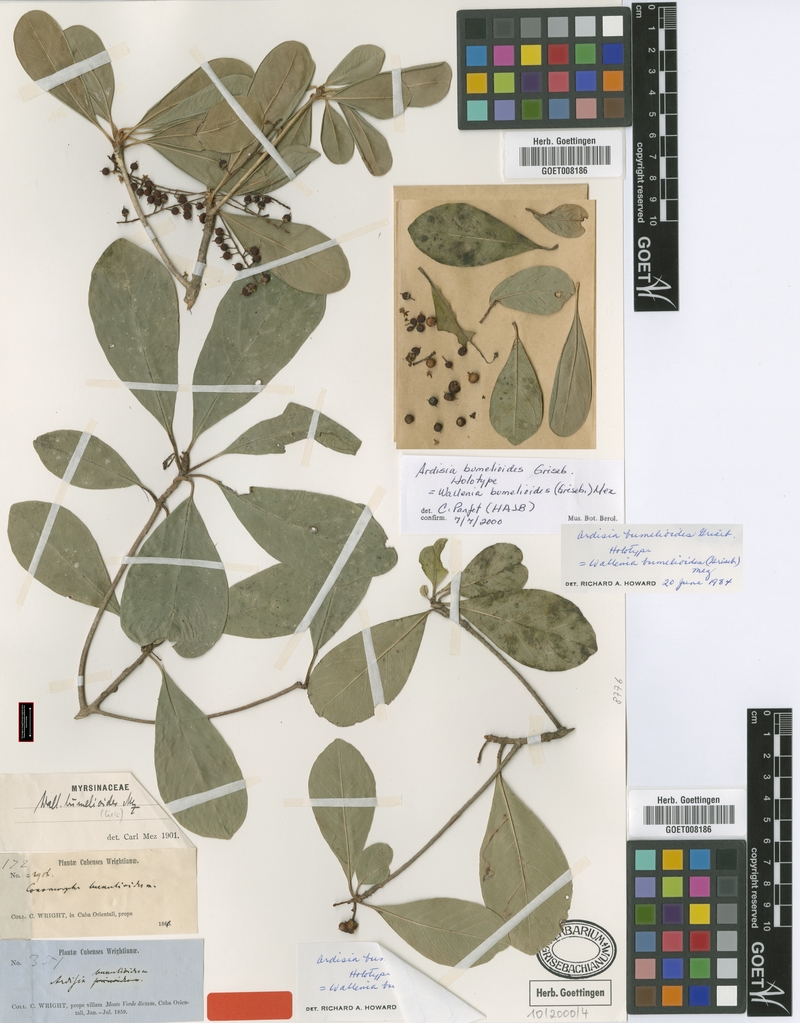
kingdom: Plantae
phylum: Tracheophyta
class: Magnoliopsida
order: Ericales
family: Primulaceae
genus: Wallenia
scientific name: Wallenia bumelioides
